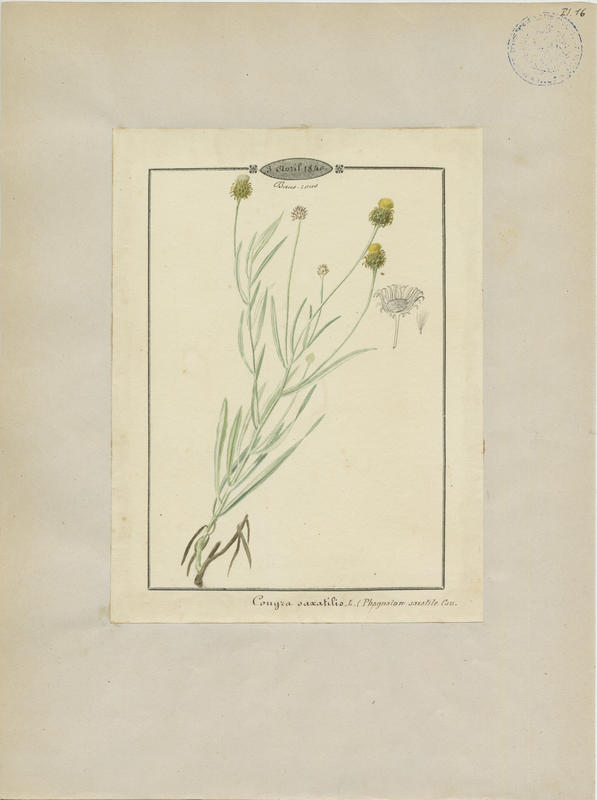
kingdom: Plantae
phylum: Tracheophyta
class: Magnoliopsida
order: Asterales
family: Asteraceae
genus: Phagnalon
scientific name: Phagnalon saxatile
